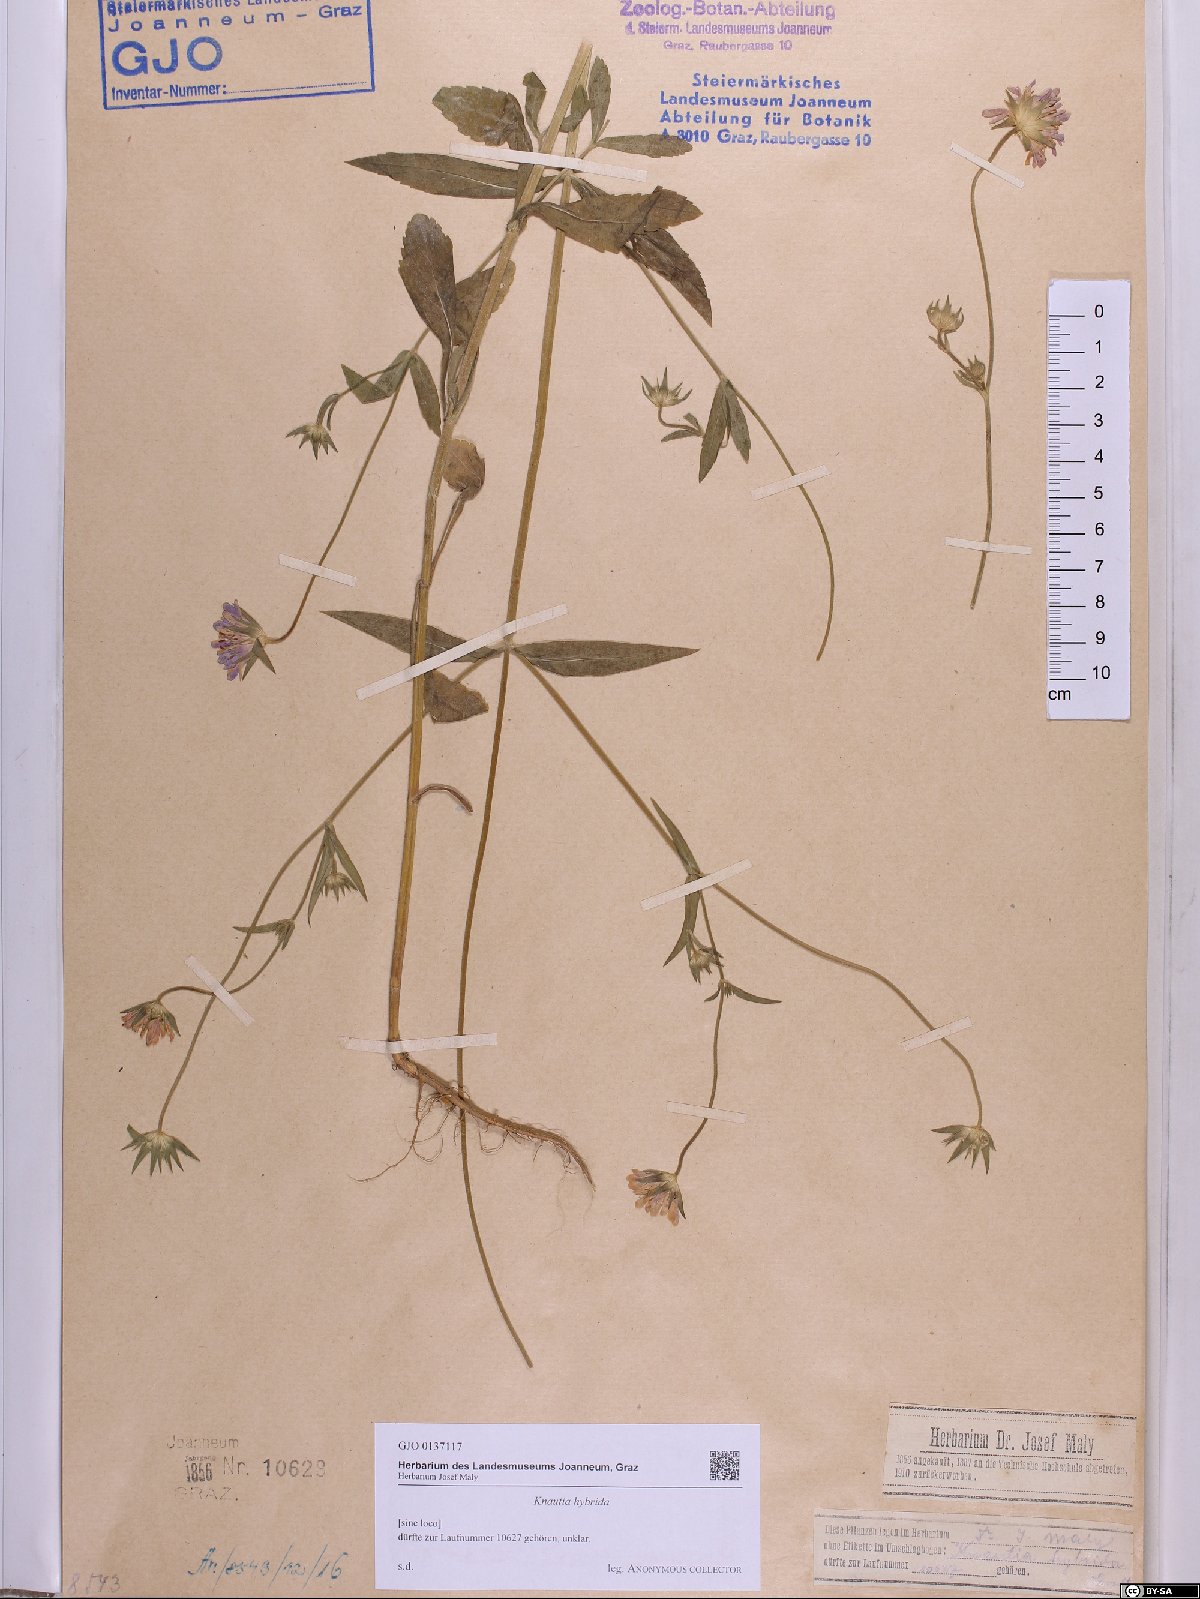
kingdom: Plantae
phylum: Tracheophyta
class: Magnoliopsida
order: Dipsacales
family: Caprifoliaceae
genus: Knautia
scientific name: Knautia integrifolia
